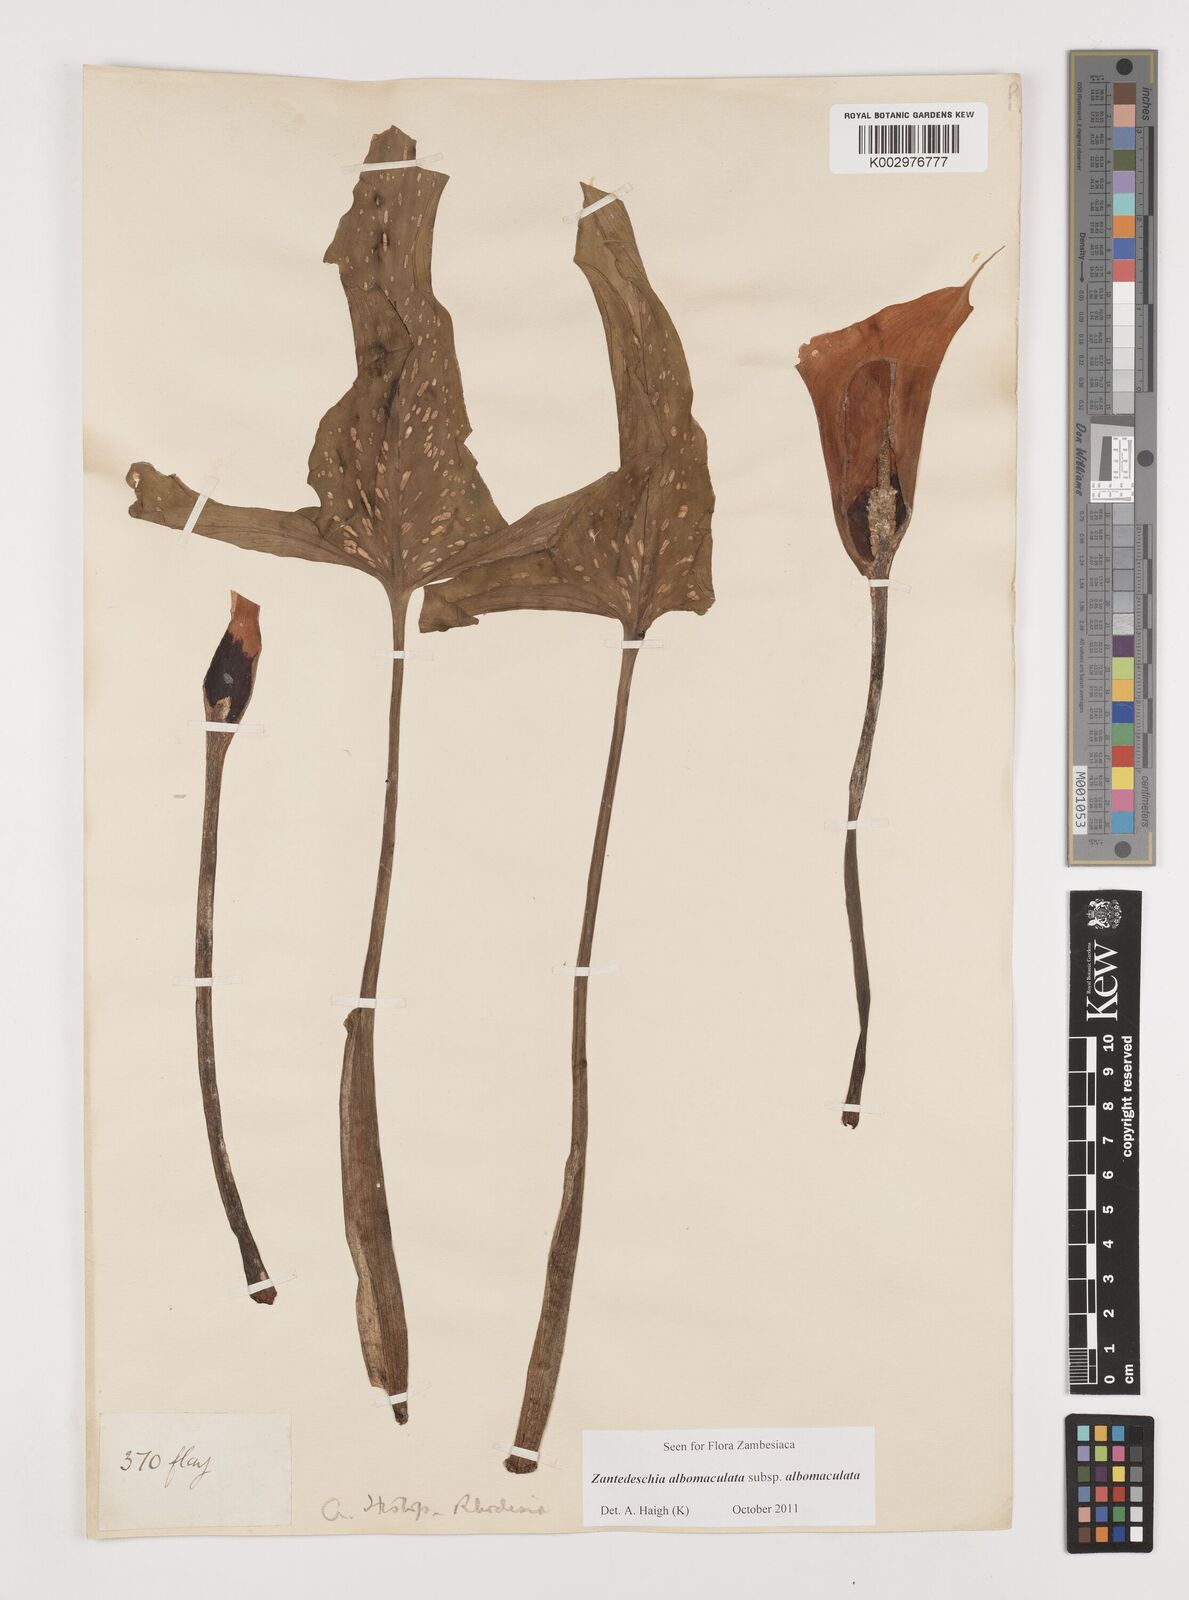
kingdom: Plantae
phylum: Tracheophyta
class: Liliopsida
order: Alismatales
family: Araceae
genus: Zantedeschia
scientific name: Zantedeschia albomaculata
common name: Spotted calla lily
